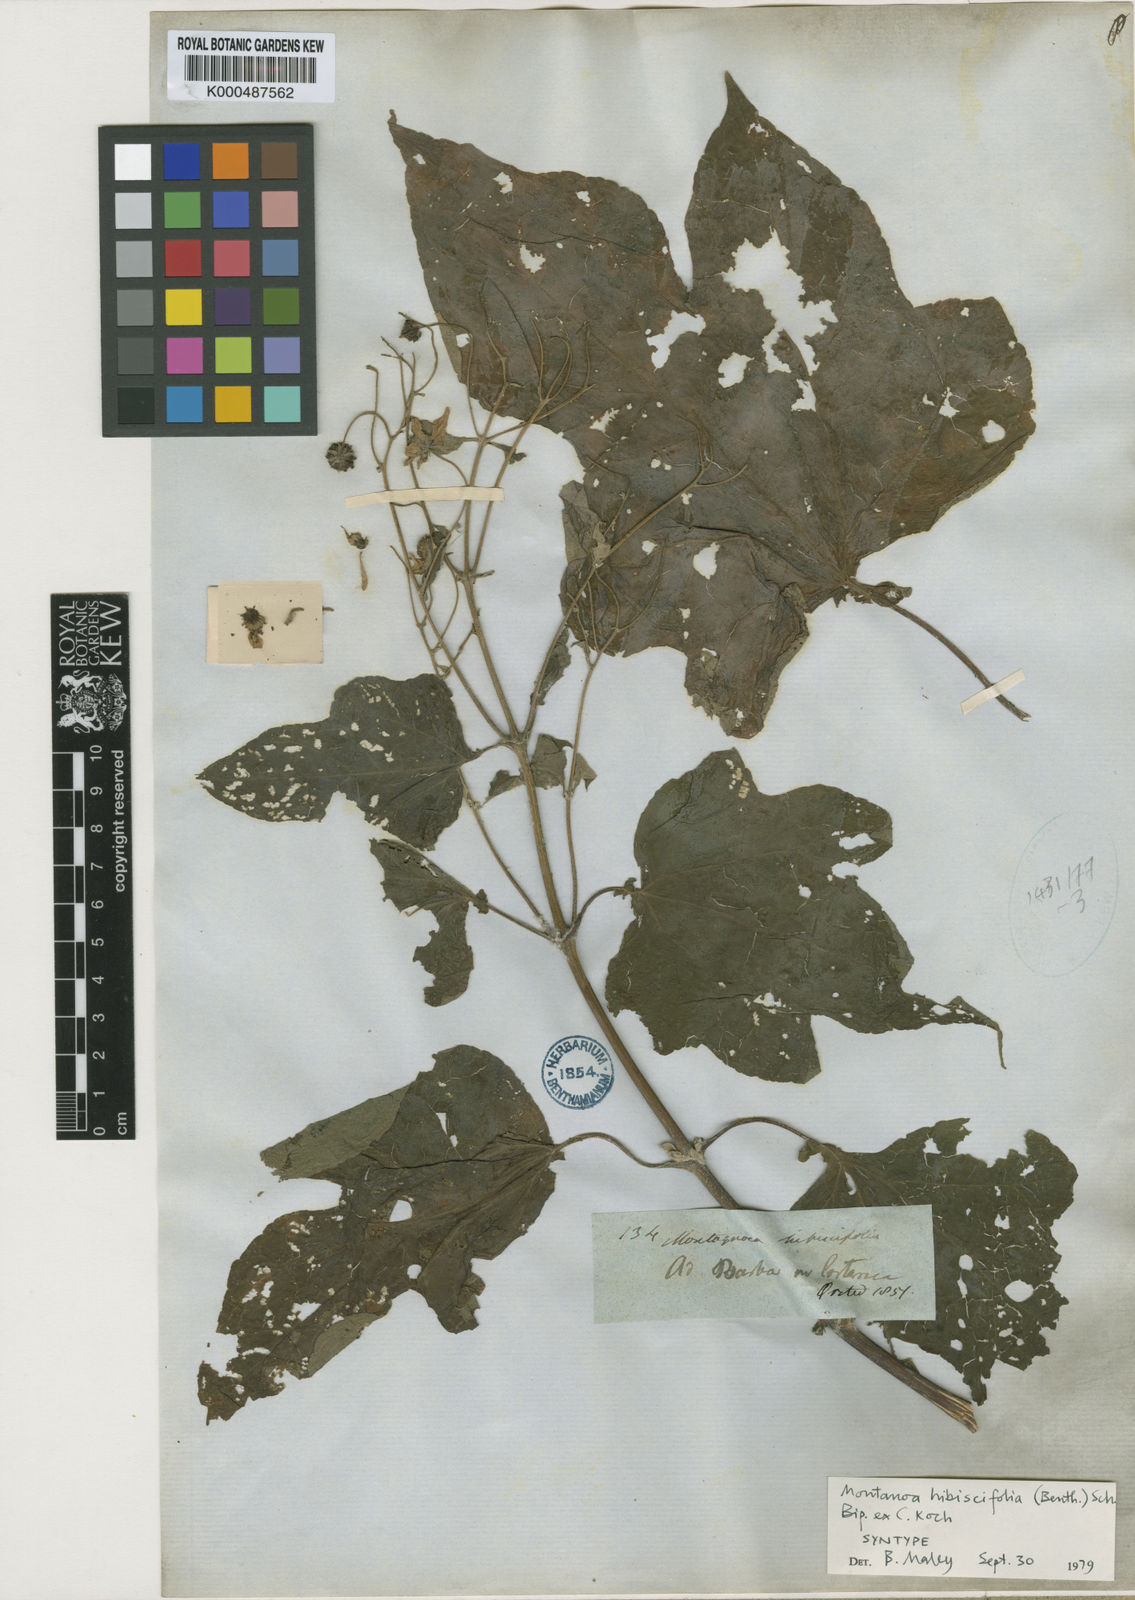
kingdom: Plantae
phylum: Tracheophyta
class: Magnoliopsida
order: Asterales
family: Asteraceae
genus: Montanoa
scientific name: Montanoa hibiscifolia
